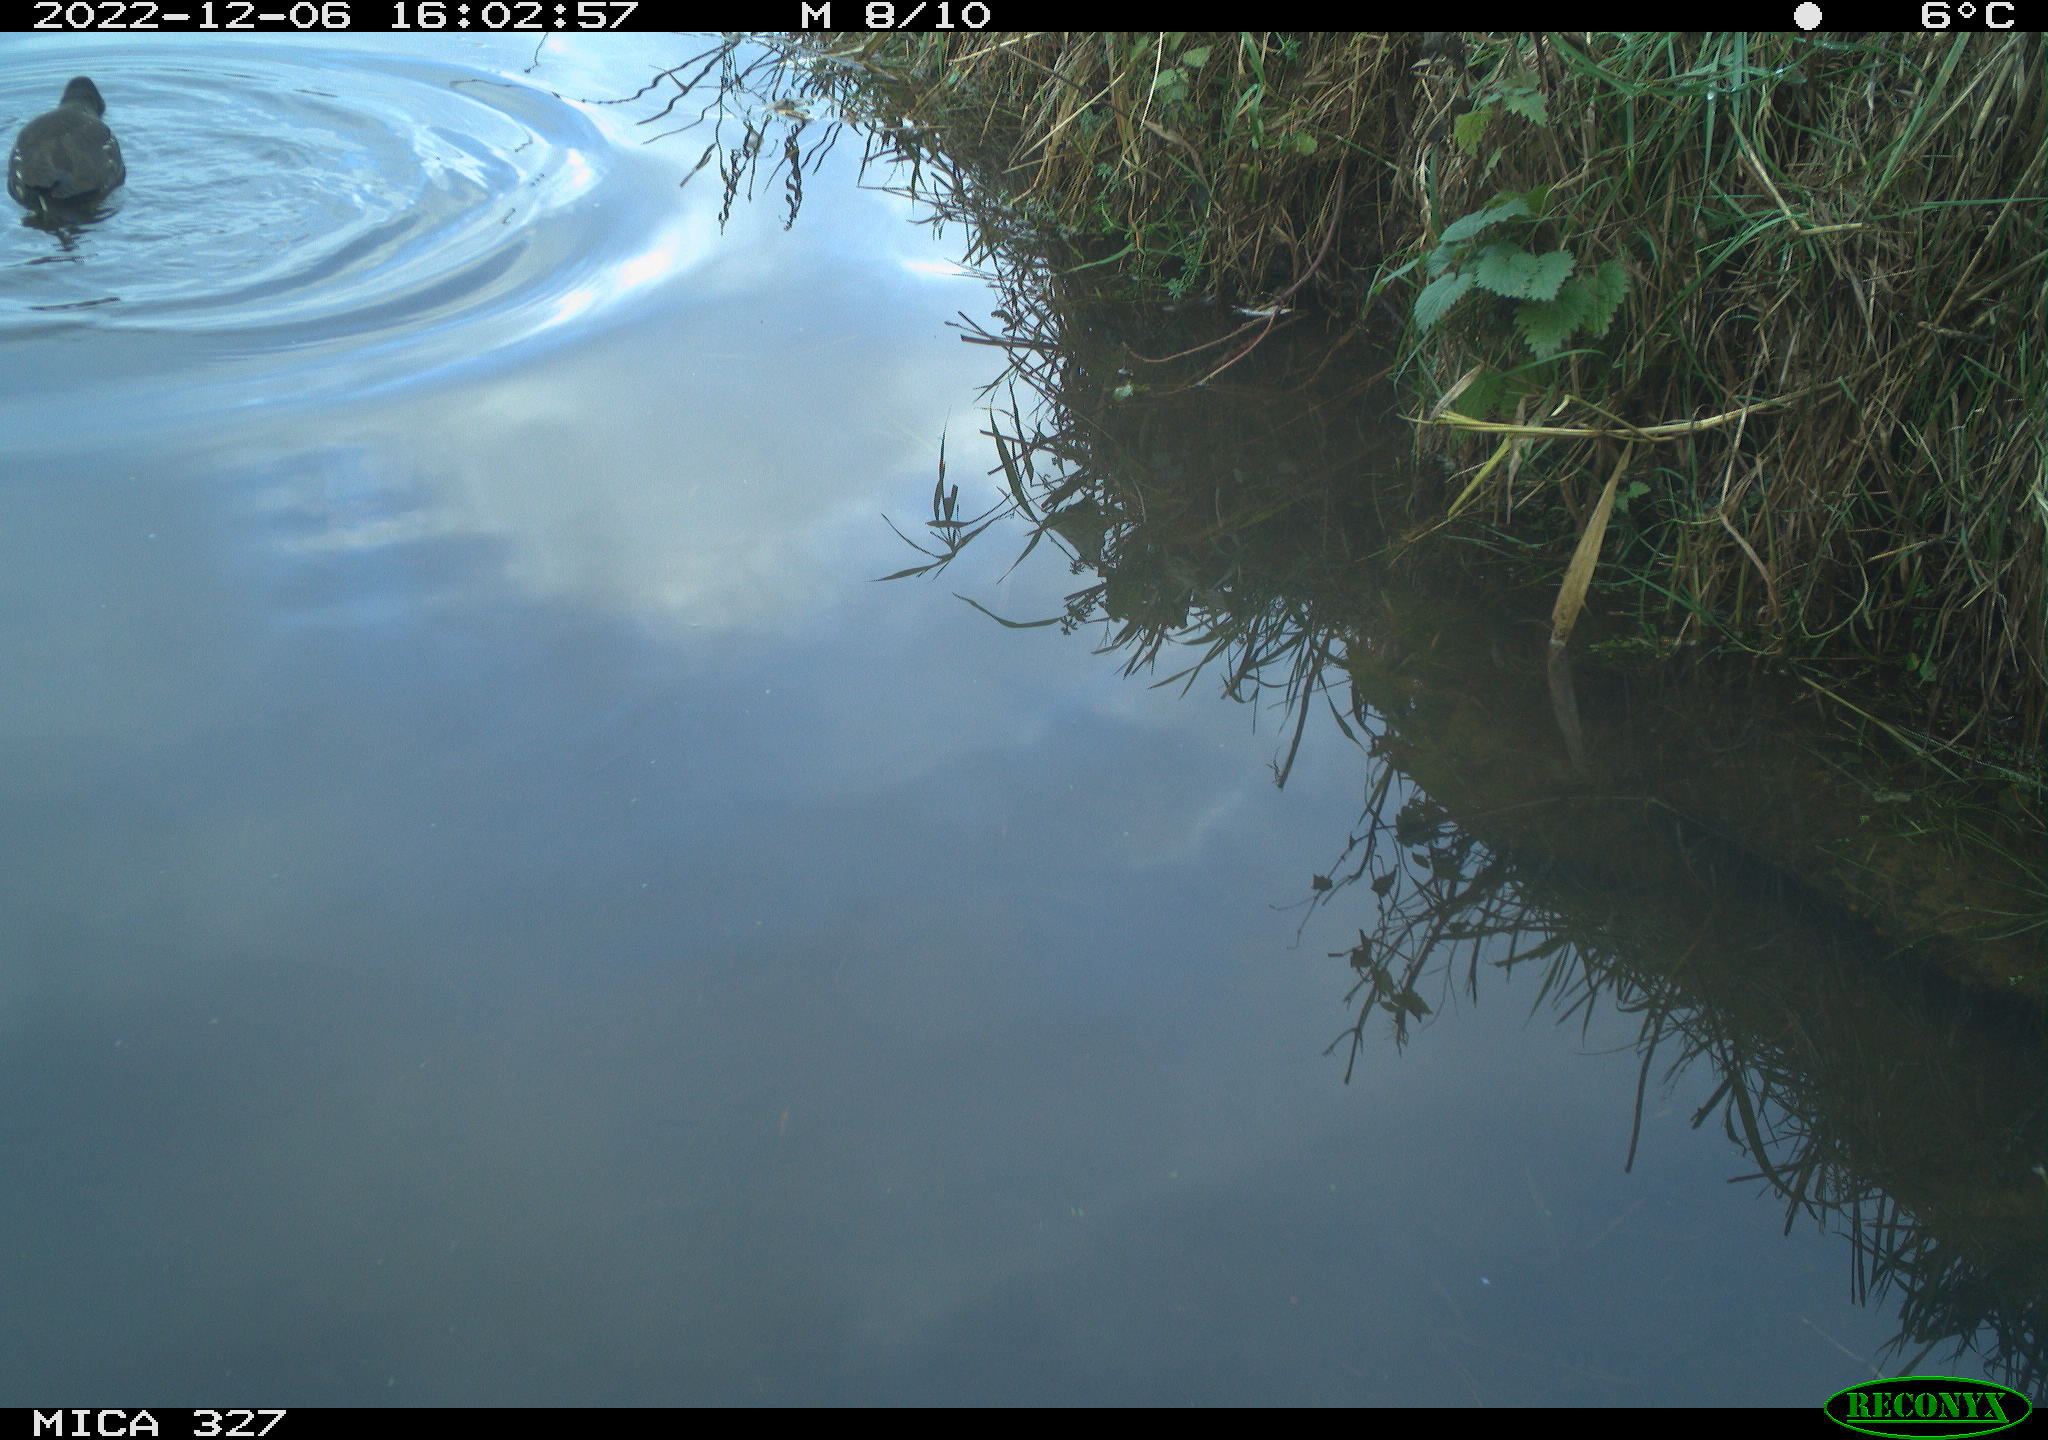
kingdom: Animalia
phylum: Chordata
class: Aves
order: Gruiformes
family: Rallidae
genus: Gallinula
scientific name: Gallinula chloropus
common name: Common moorhen
